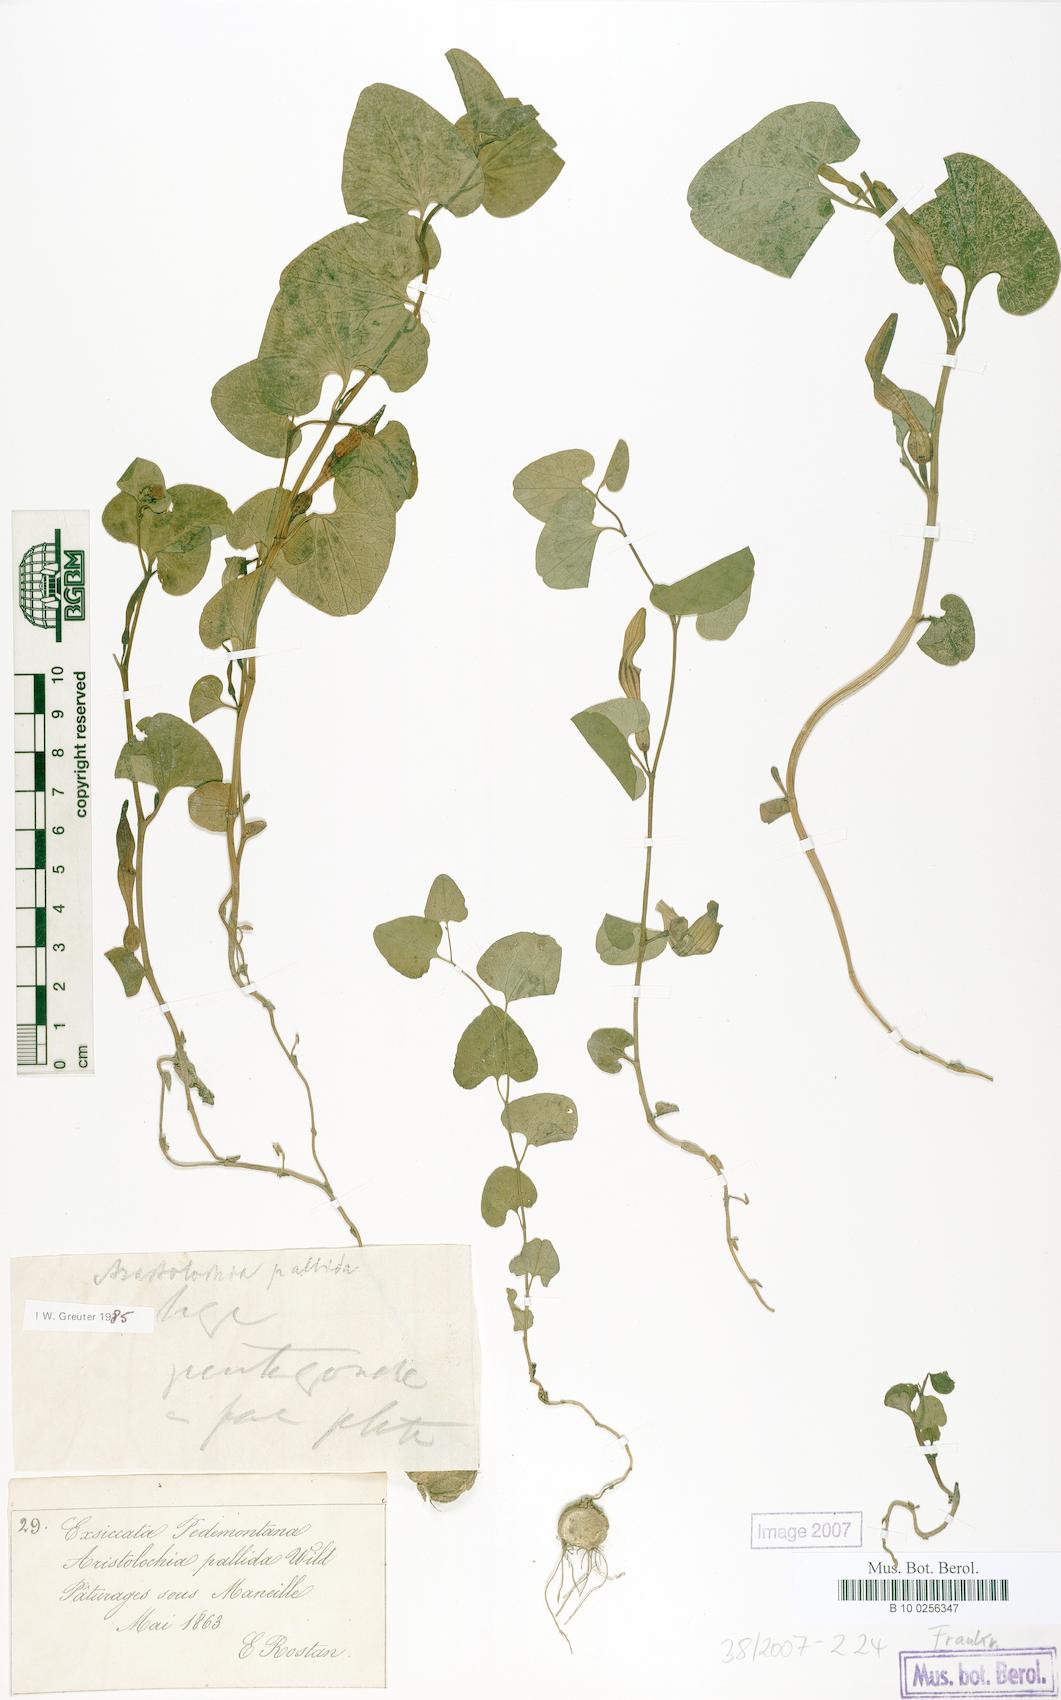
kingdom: Plantae
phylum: Tracheophyta
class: Magnoliopsida
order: Piperales
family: Aristolochiaceae
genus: Aristolochia
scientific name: Aristolochia pallida
